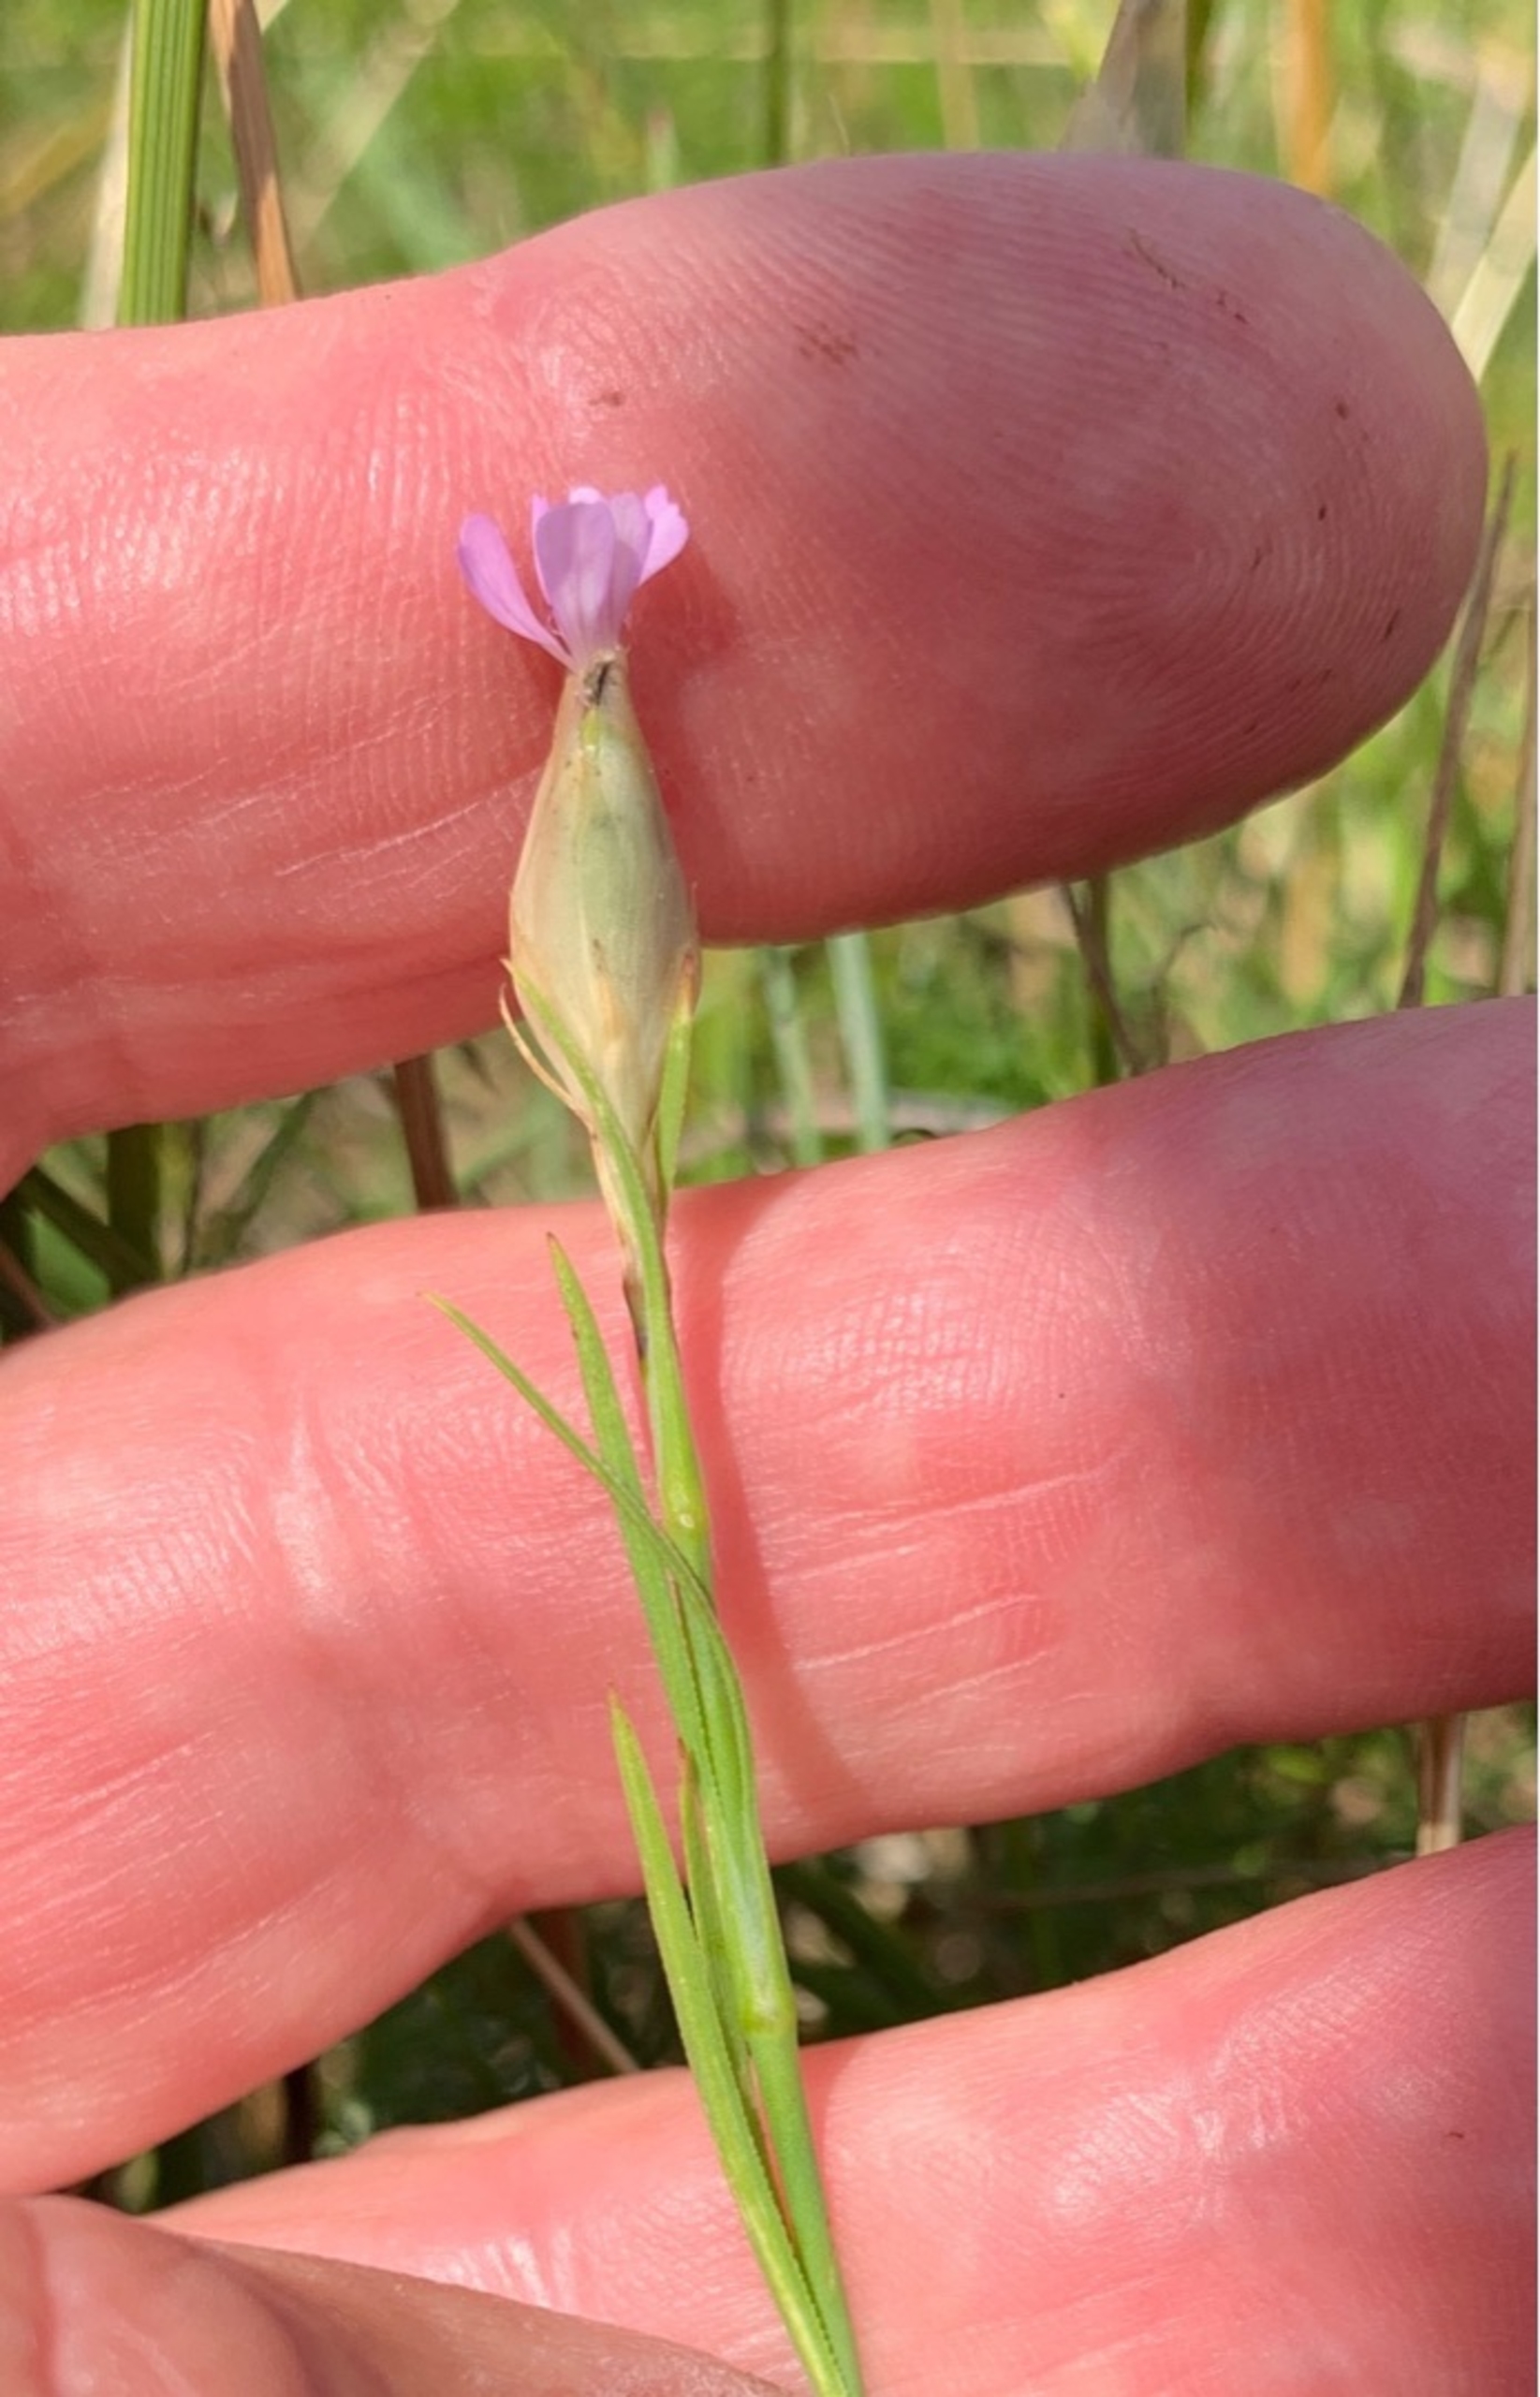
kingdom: Plantae
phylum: Tracheophyta
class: Magnoliopsida
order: Caryophyllales
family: Caryophyllaceae
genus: Petrorhagia
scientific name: Petrorhagia prolifera
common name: Knopnellike
